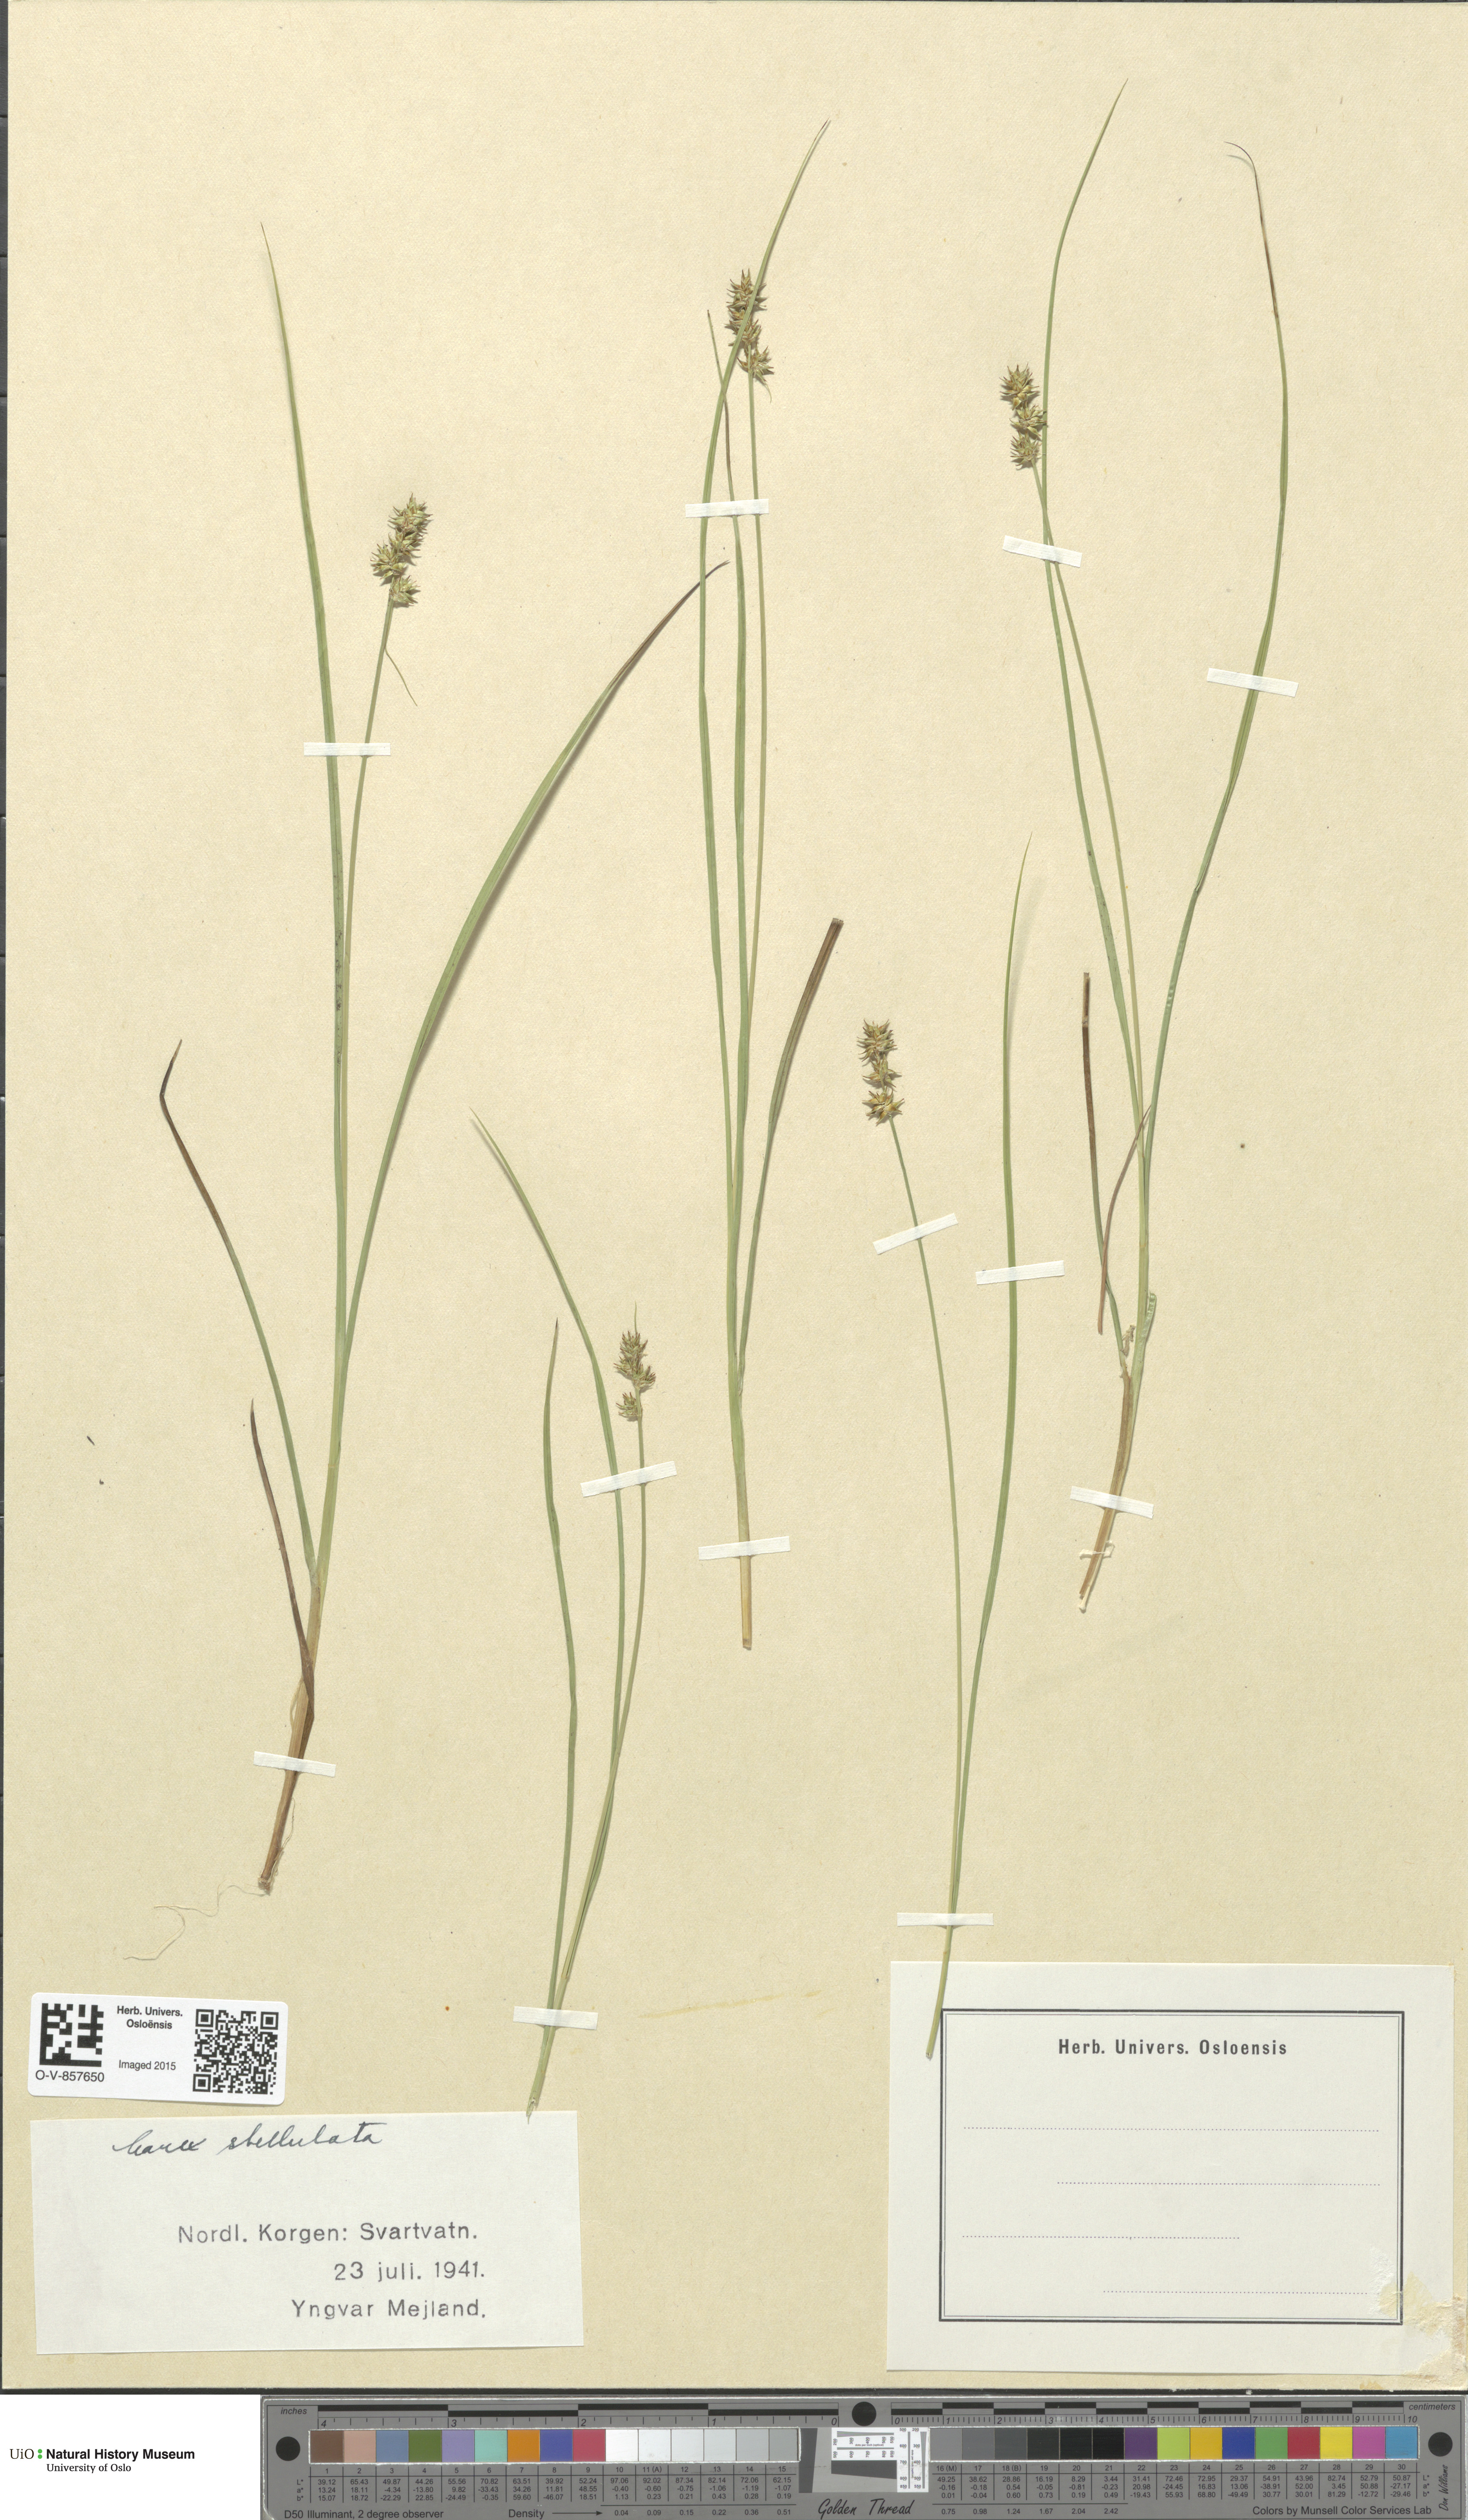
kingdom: Plantae
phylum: Tracheophyta
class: Liliopsida
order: Poales
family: Cyperaceae
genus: Carex
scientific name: Carex echinata
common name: Star sedge
